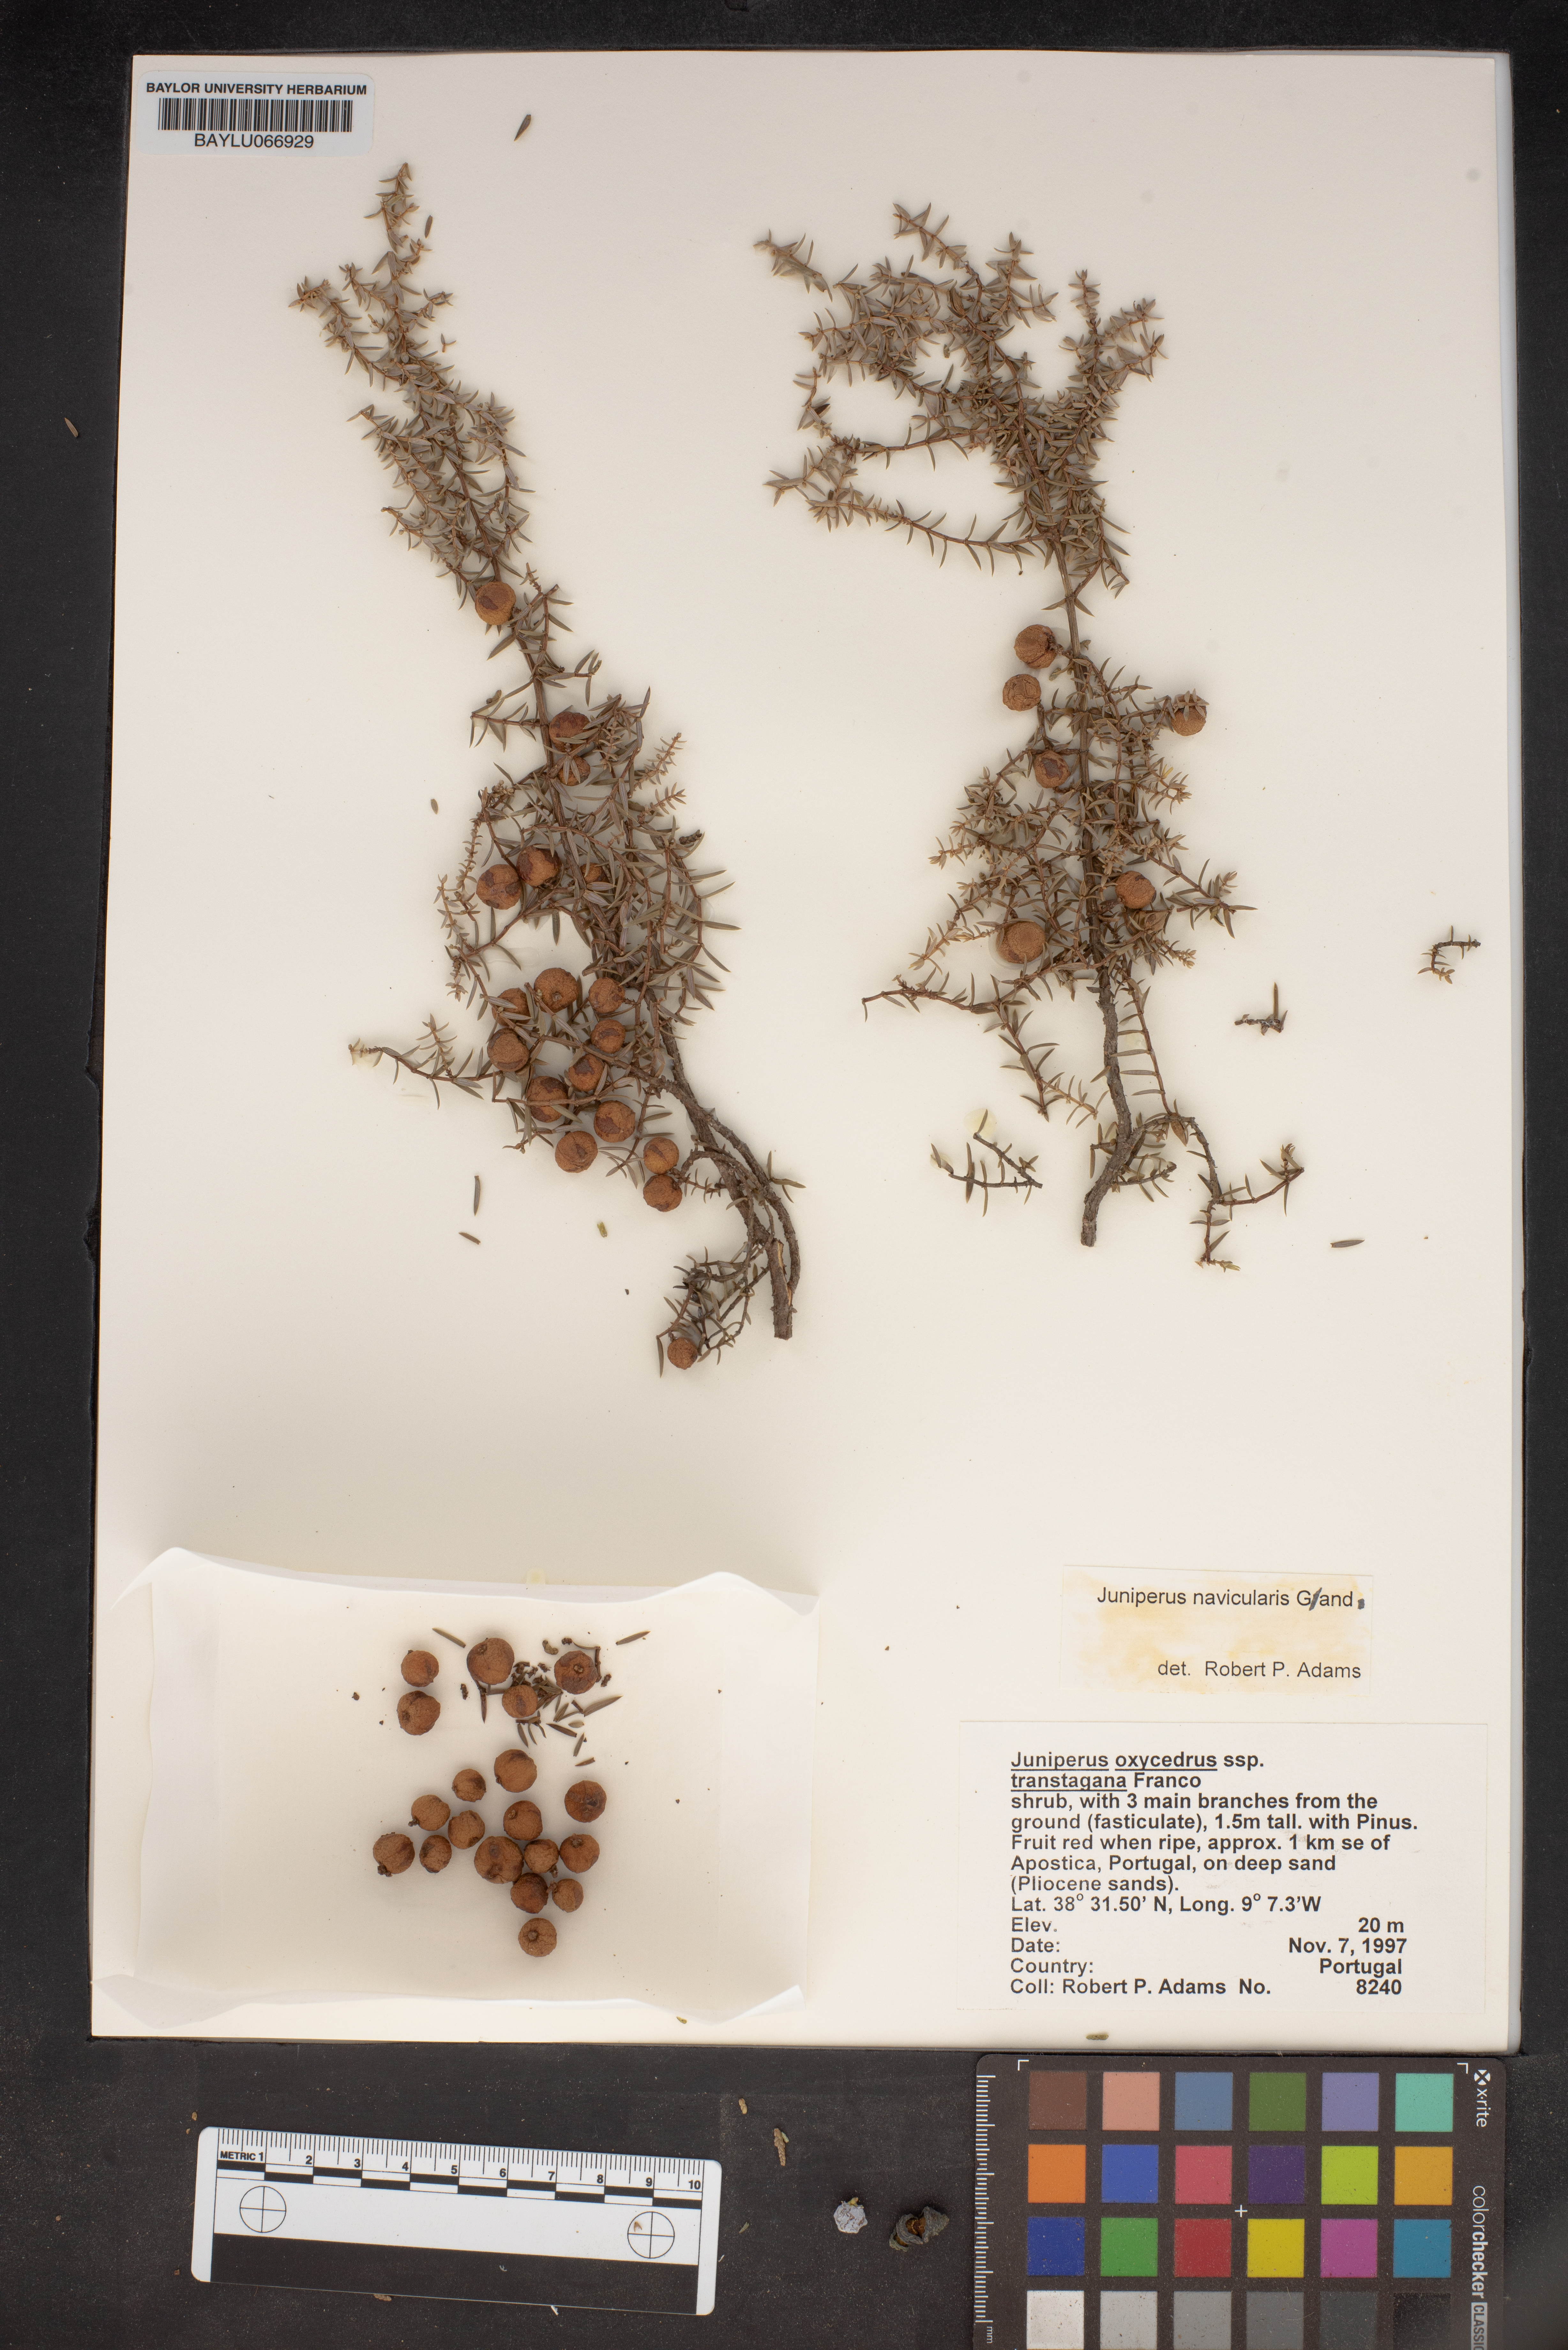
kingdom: Plantae
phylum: Tracheophyta
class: Pinopsida
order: Pinales
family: Cupressaceae
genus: Juniperus
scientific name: Juniperus oxycedrus
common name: Prickly juniper
